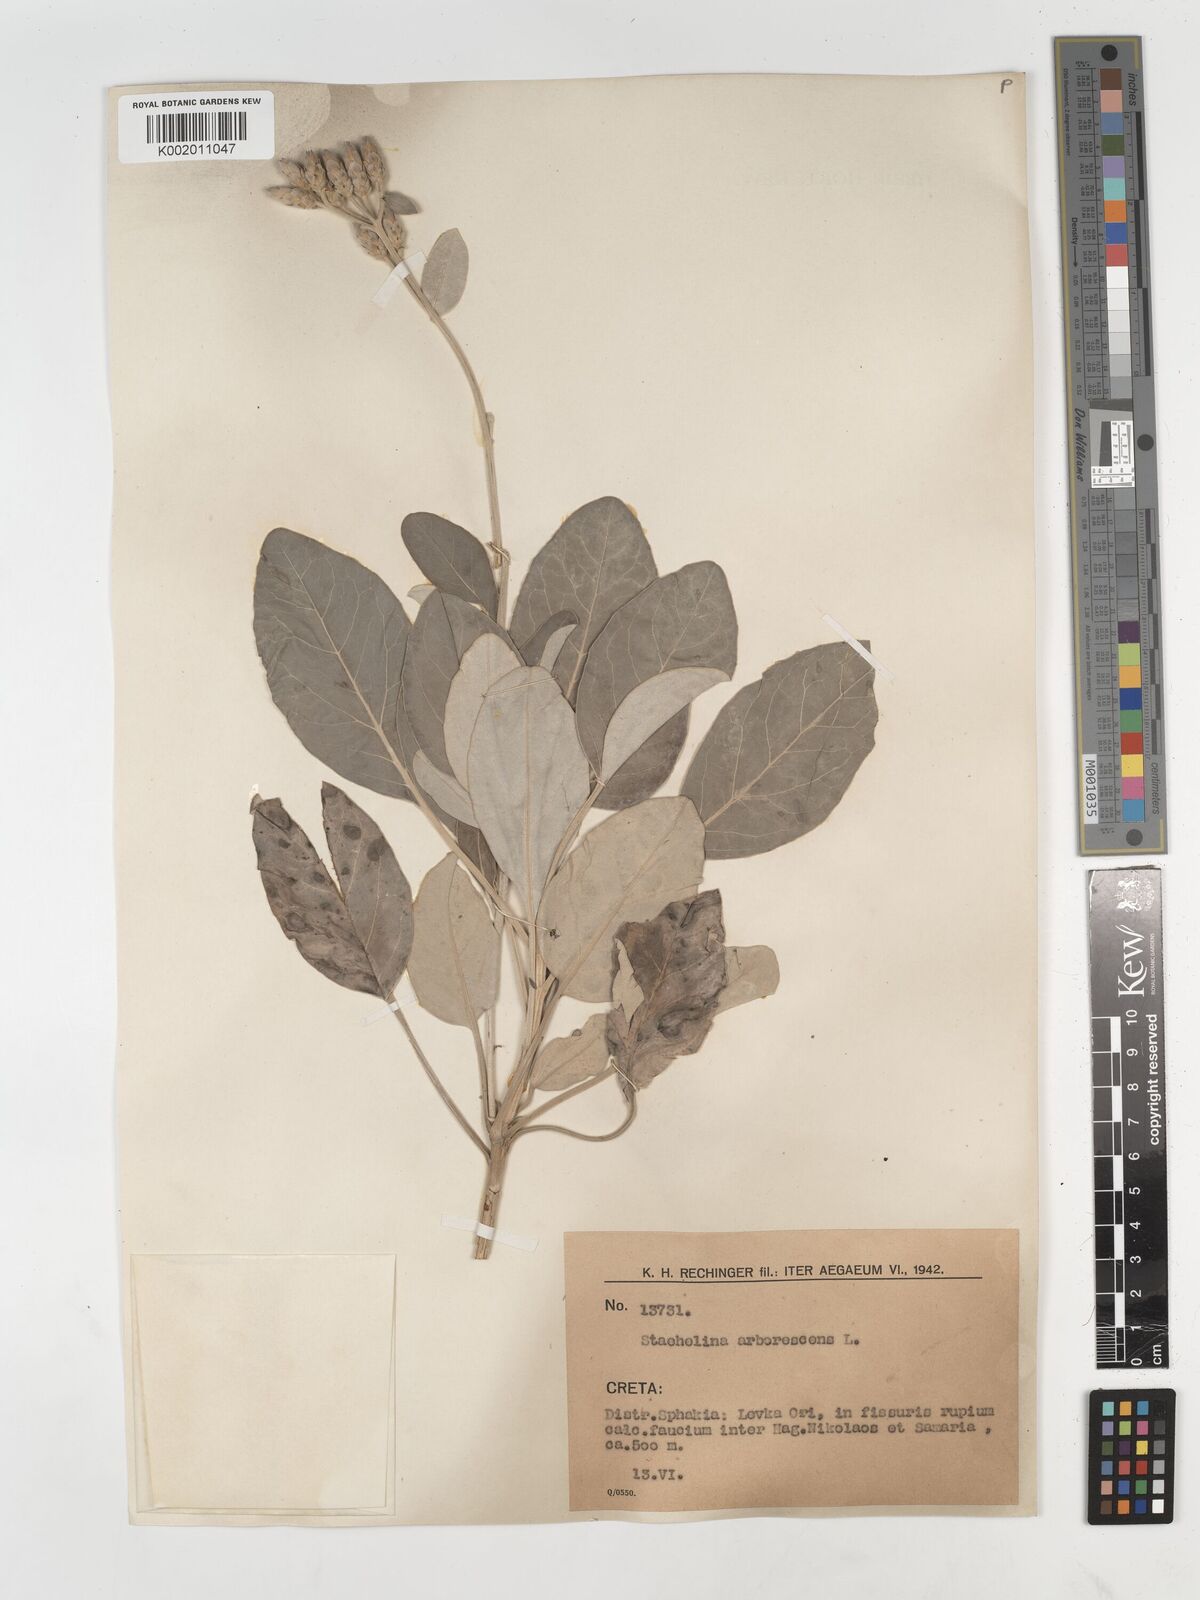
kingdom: Plantae
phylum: Tracheophyta
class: Magnoliopsida
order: Asterales
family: Asteraceae
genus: Staehelina
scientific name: Staehelina petiolata
